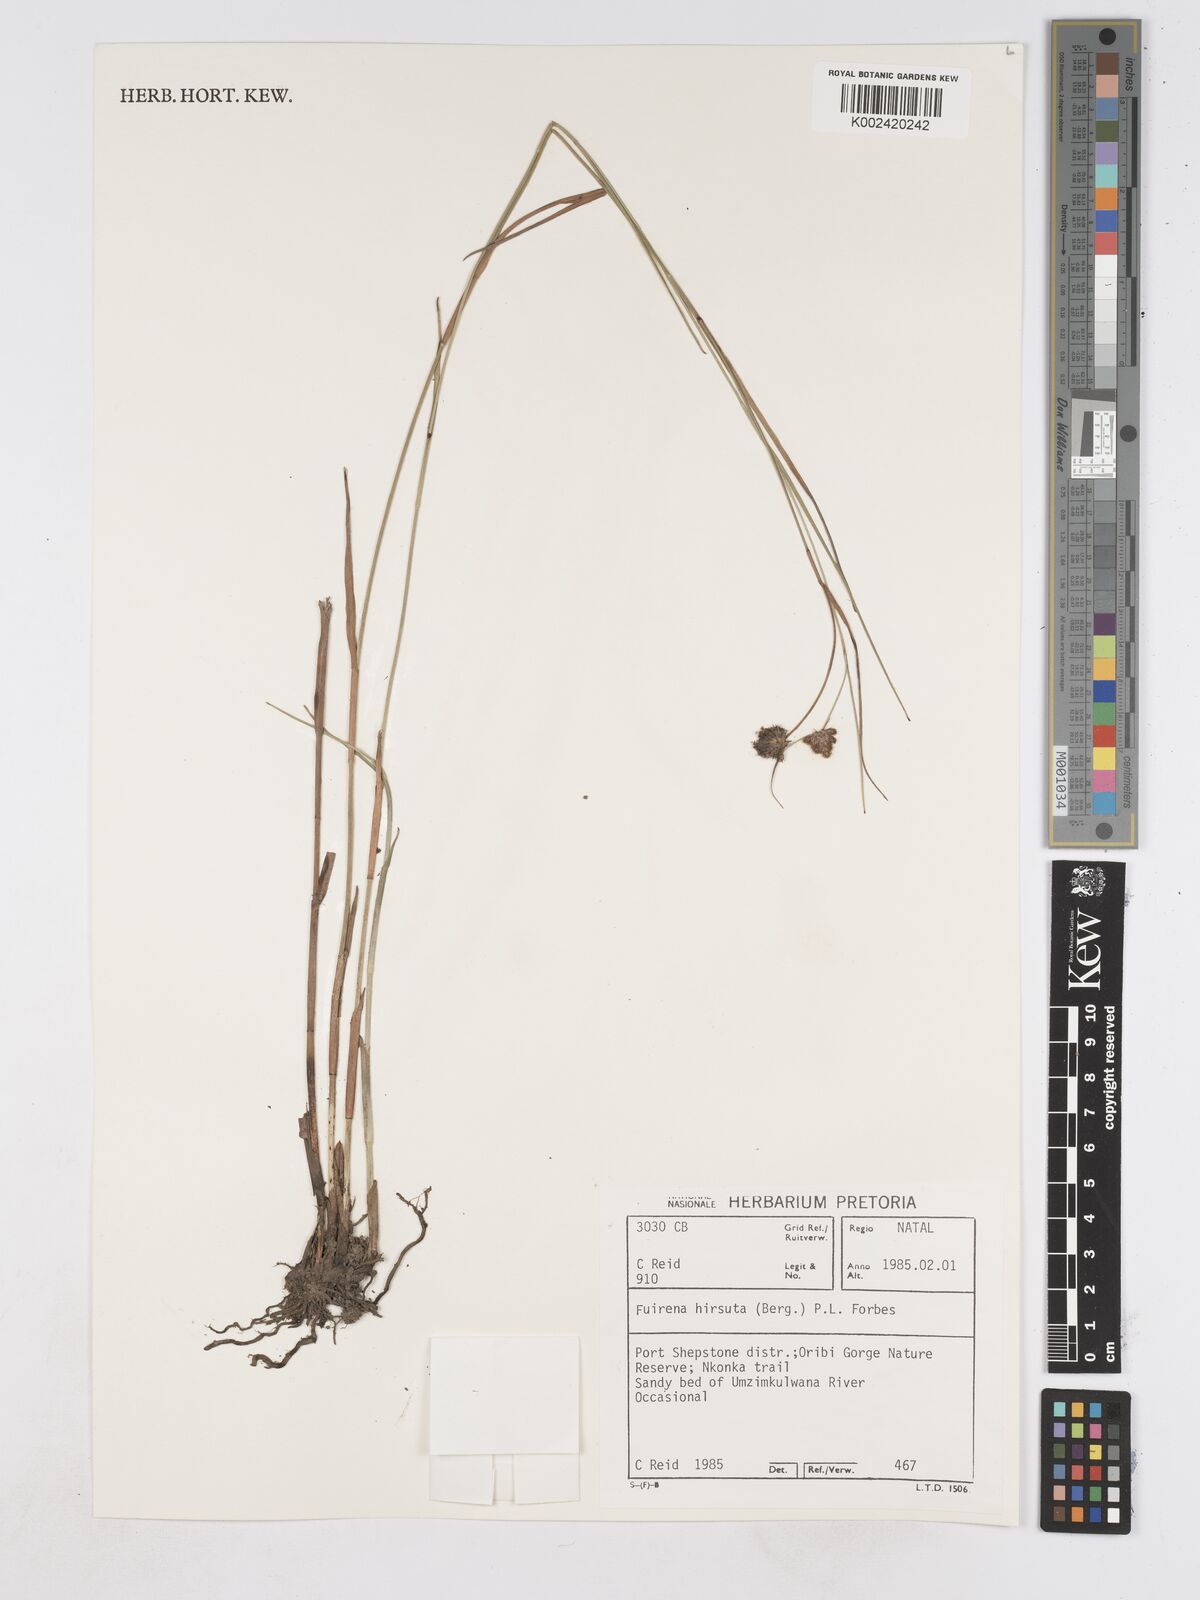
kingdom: Plantae
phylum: Tracheophyta
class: Liliopsida
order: Poales
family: Cyperaceae
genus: Fuirena
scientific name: Fuirena hirsuta
